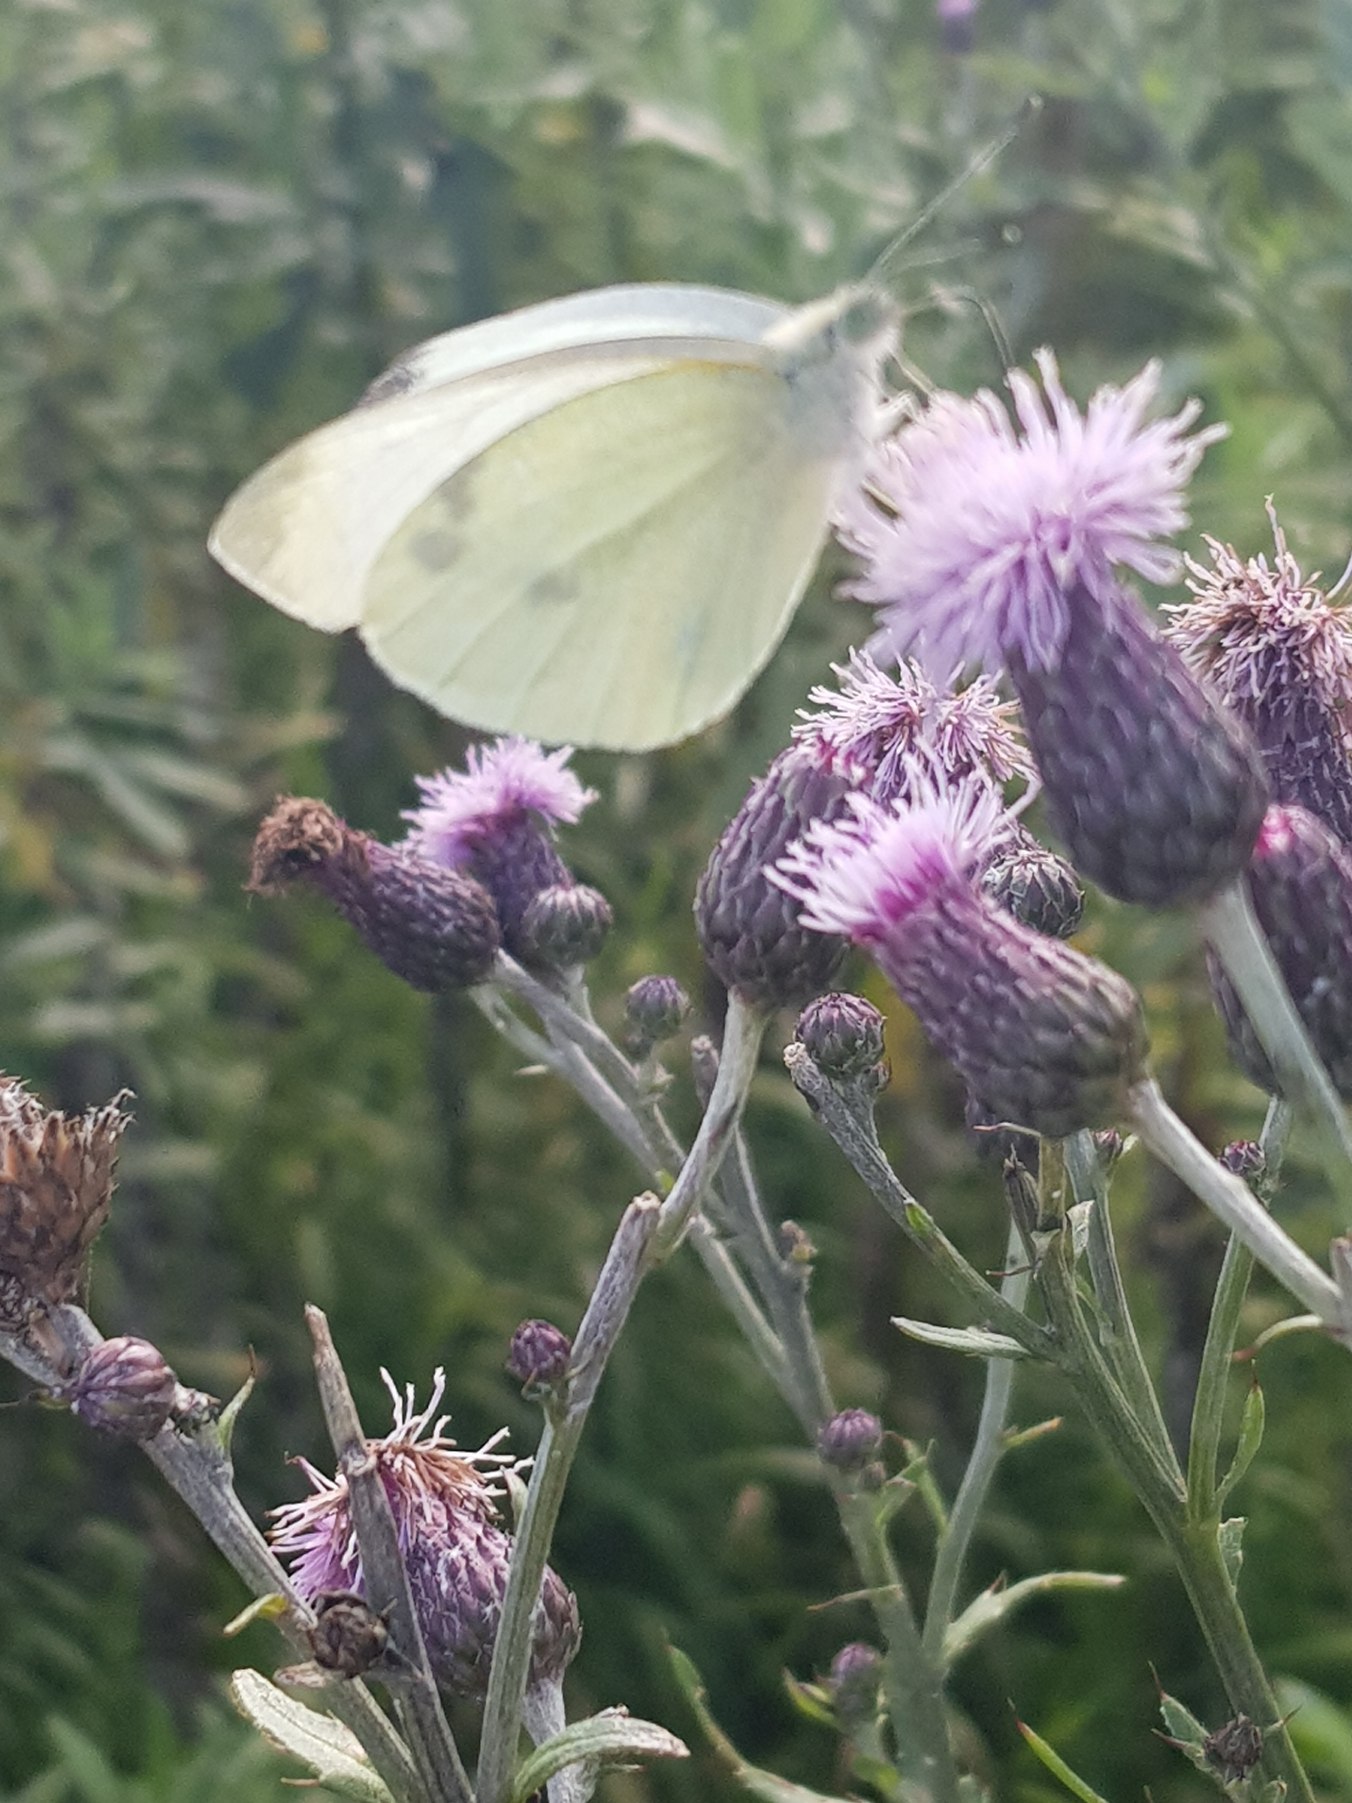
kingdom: Animalia
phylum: Arthropoda
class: Insecta
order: Lepidoptera
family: Pieridae
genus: Pieris
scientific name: Pieris rapae
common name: Lille kålsommerfugl
